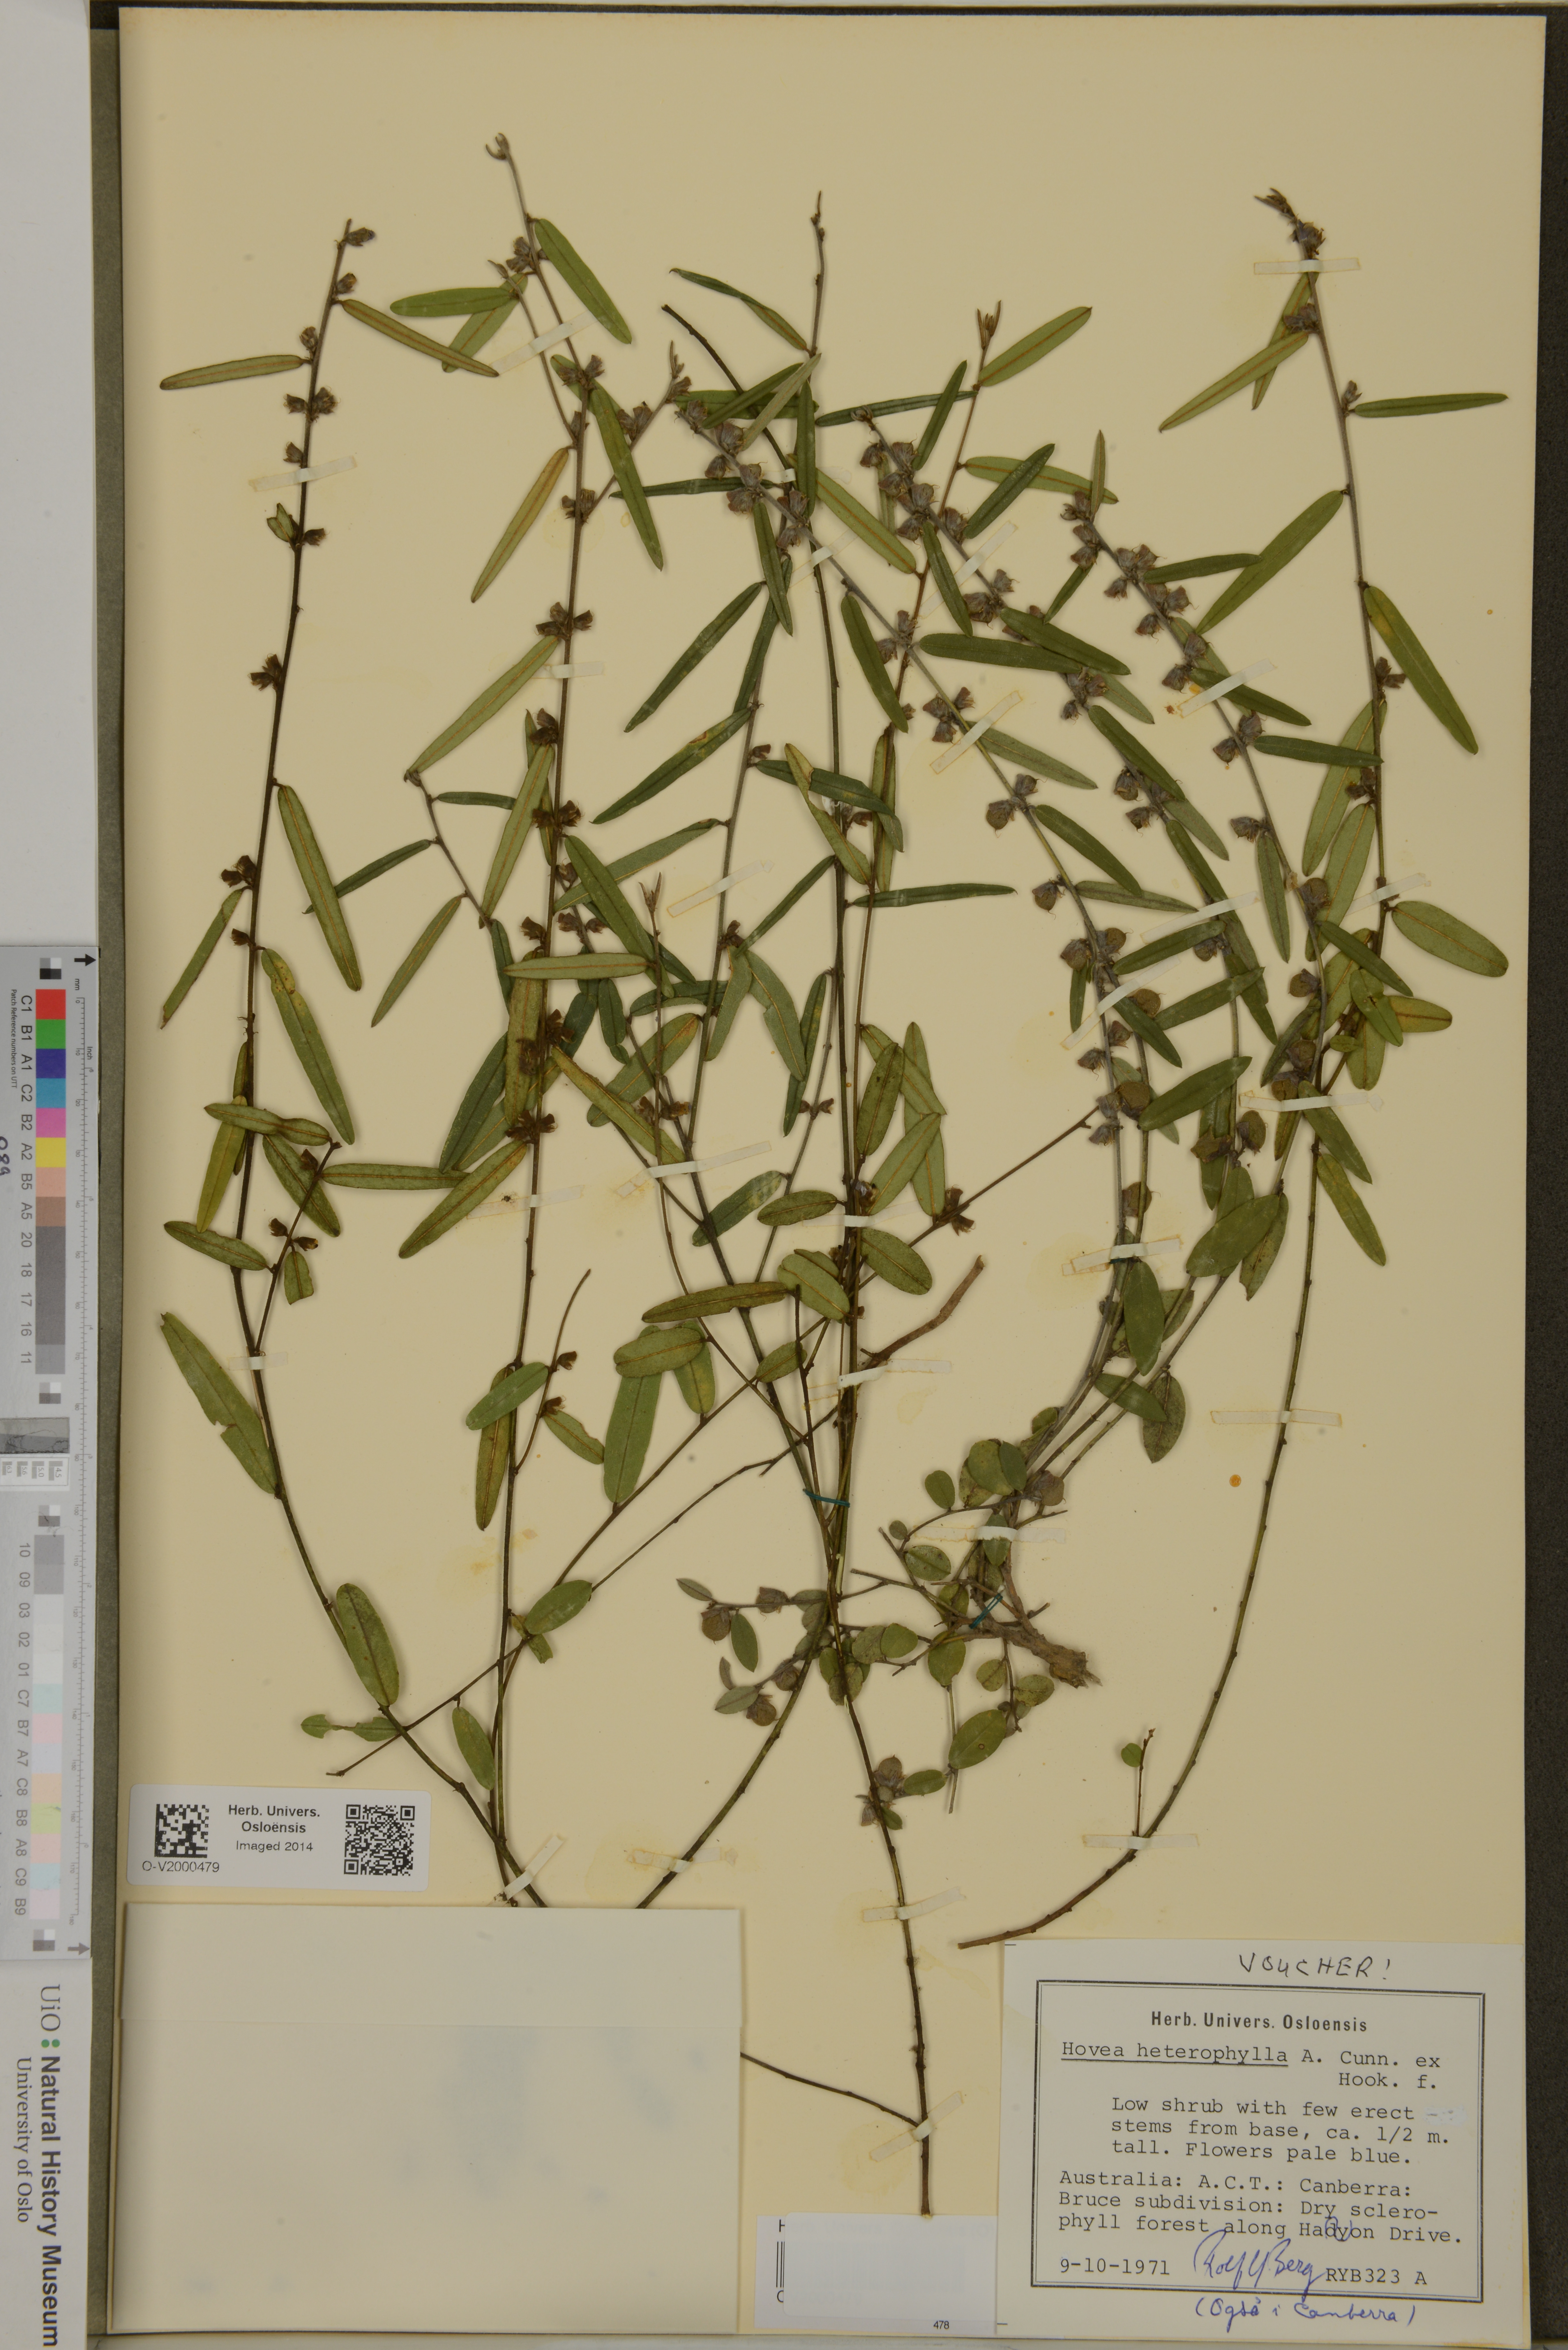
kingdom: Plantae
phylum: Tracheophyta
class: Magnoliopsida
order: Fabales
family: Fabaceae
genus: Hovea
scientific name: Hovea heterophylla
